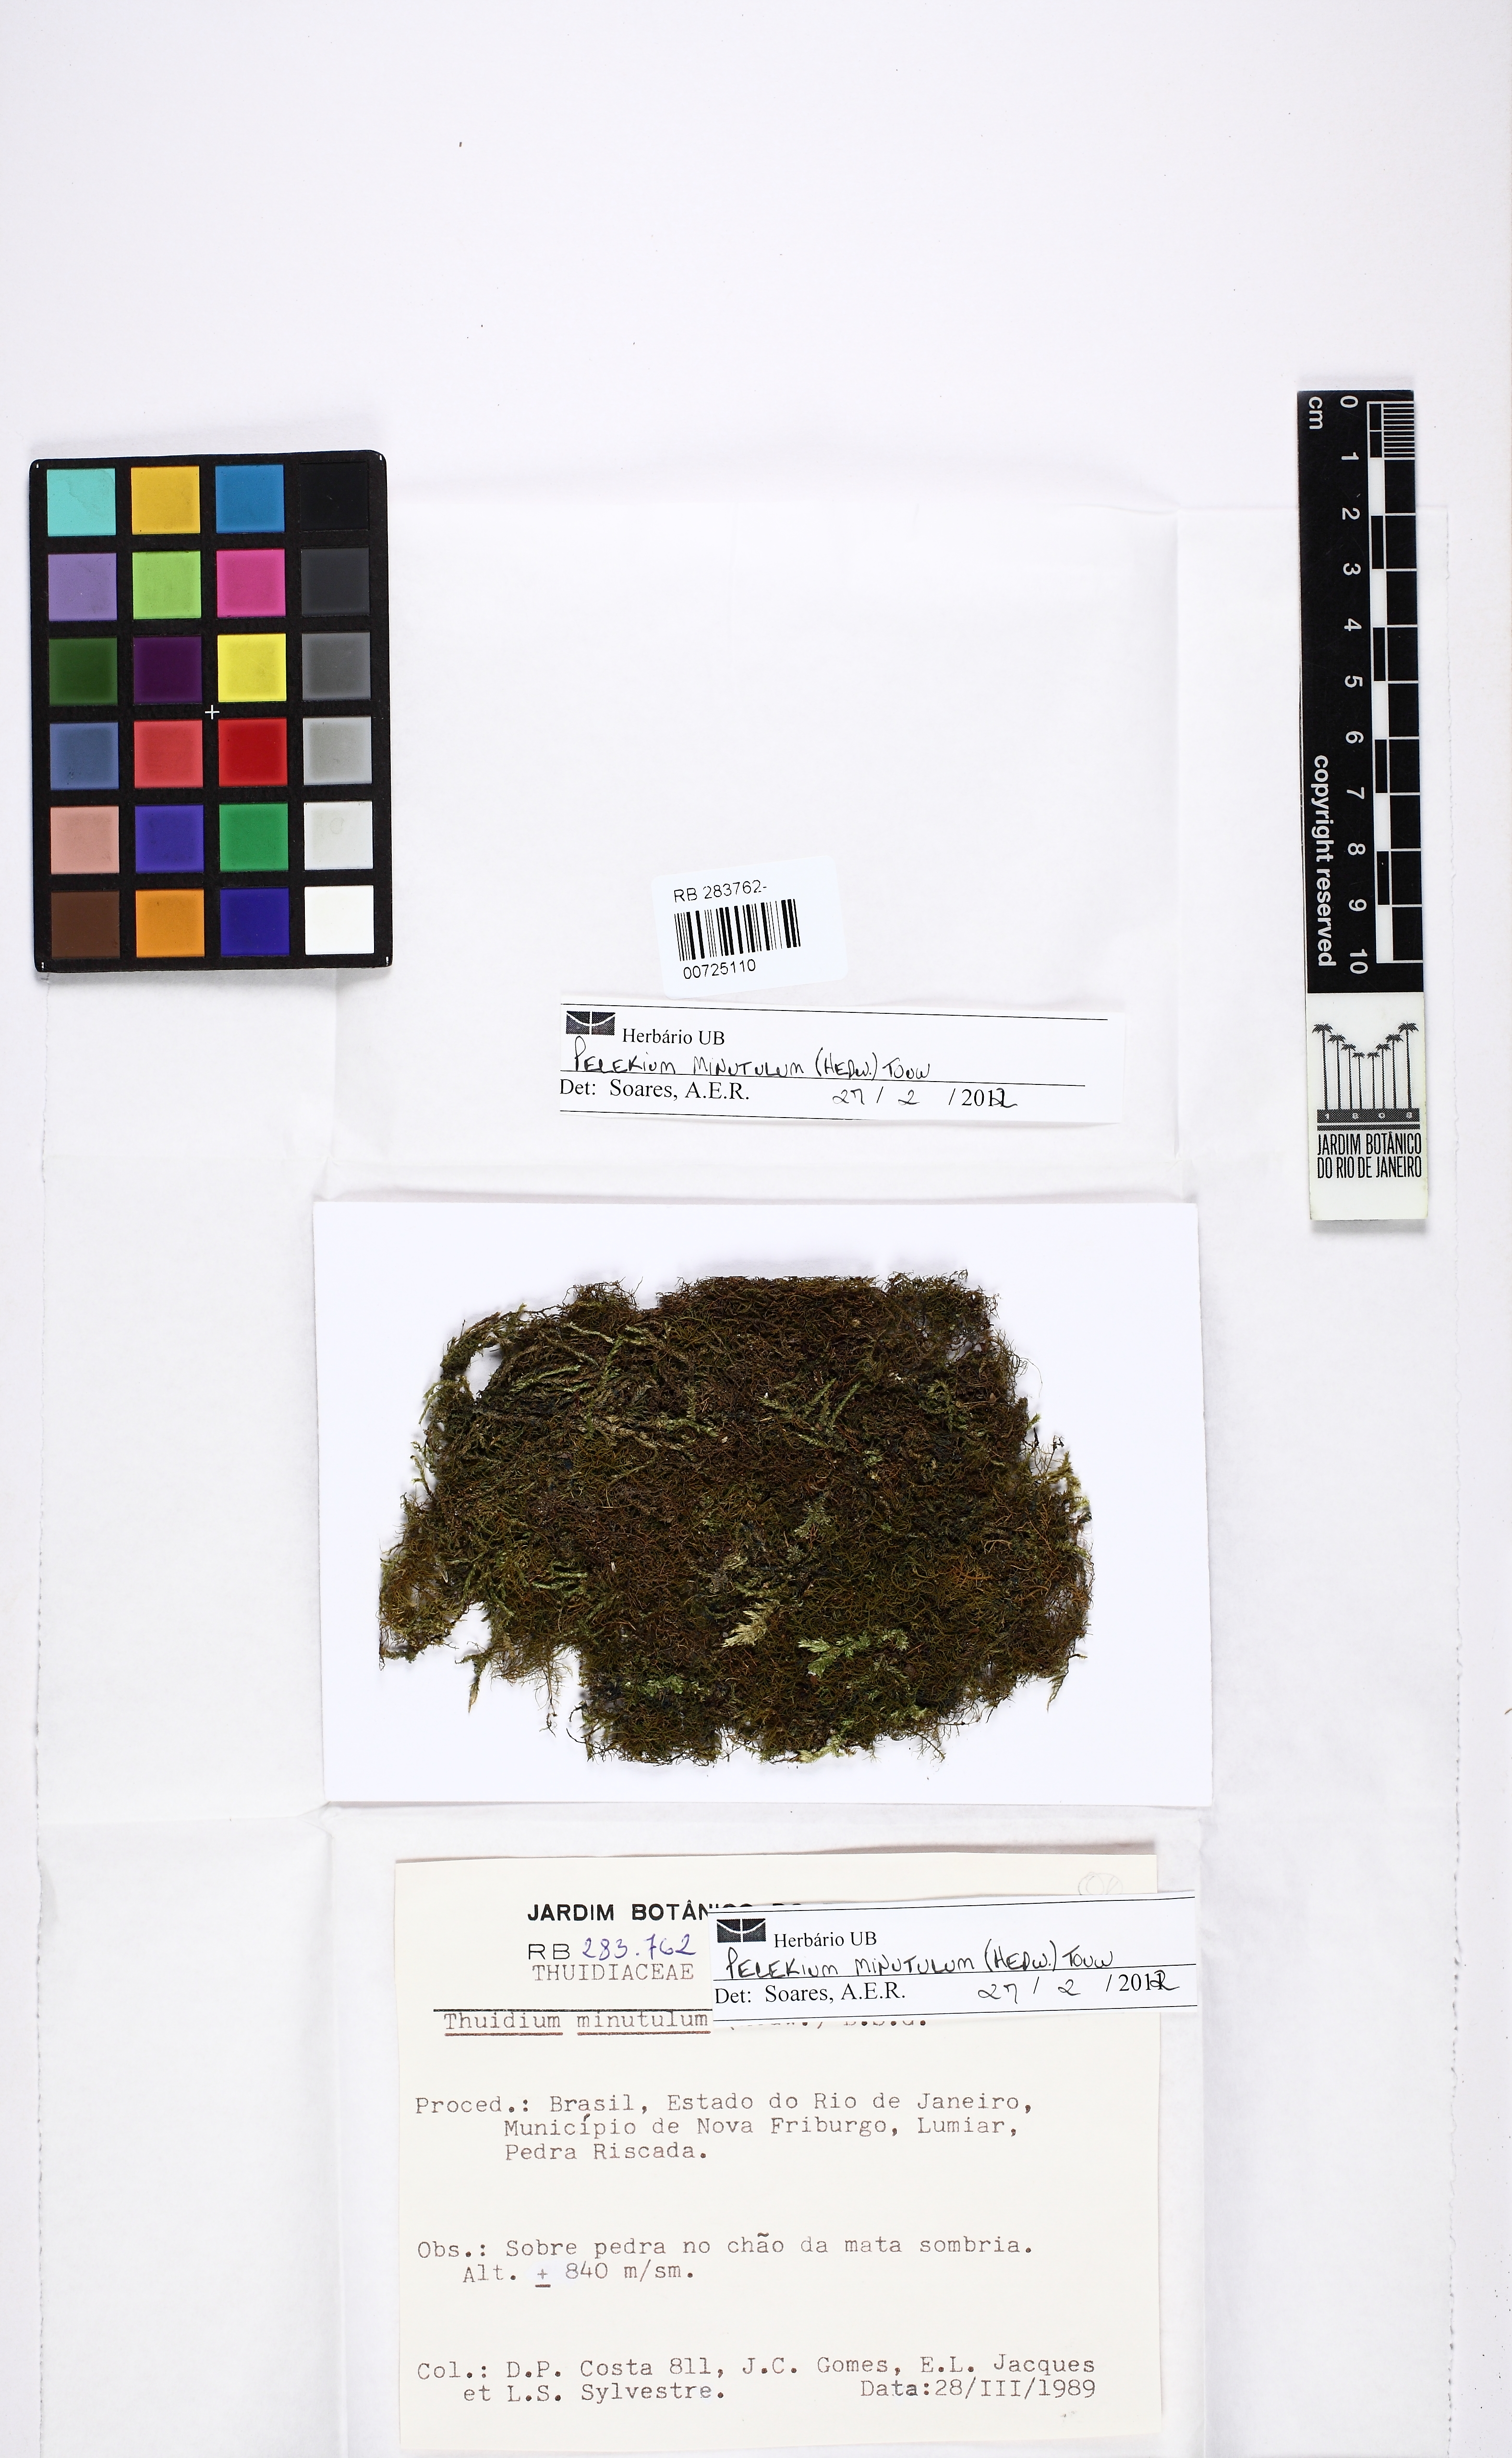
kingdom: Plantae
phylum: Bryophyta
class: Bryopsida
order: Hypnales
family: Thuidiaceae
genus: Pelekium
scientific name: Pelekium minutulum
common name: Tiny cedar moss
